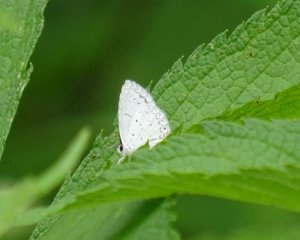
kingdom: Animalia
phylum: Arthropoda
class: Insecta
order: Lepidoptera
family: Lycaenidae
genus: Cyaniris
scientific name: Cyaniris neglecta
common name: Summer Azure
